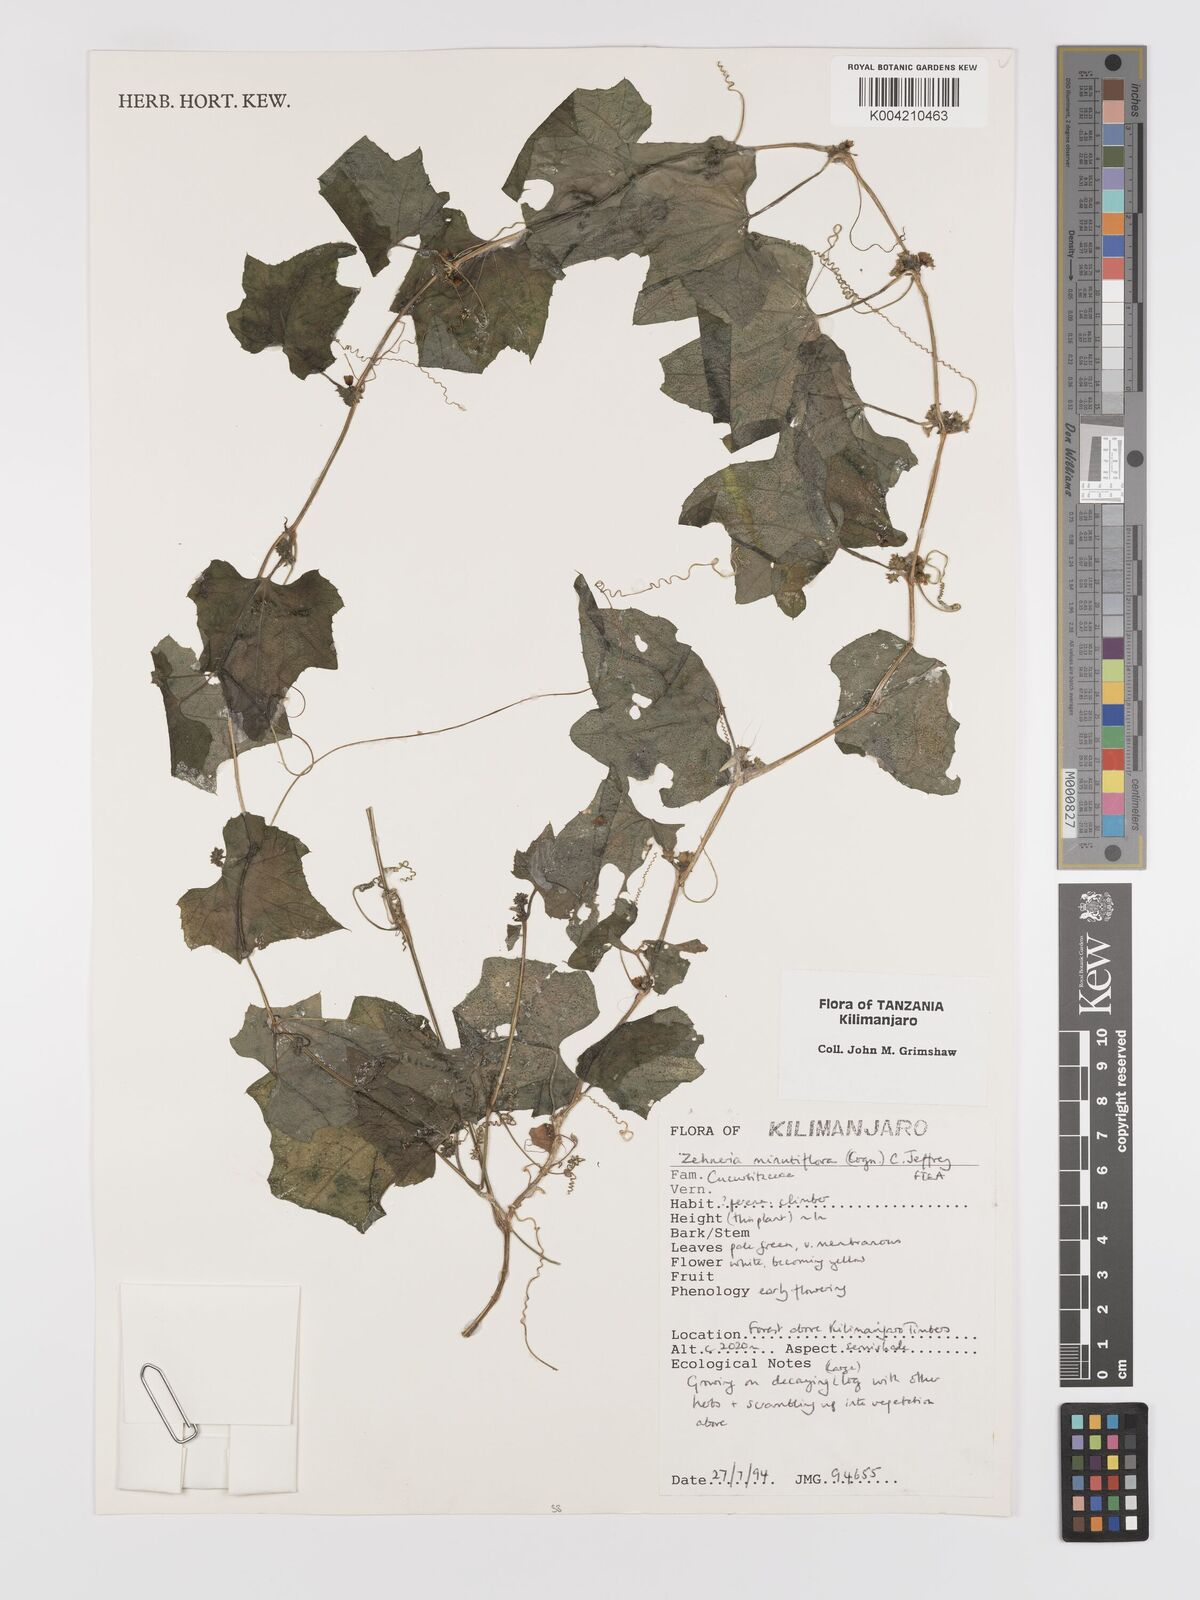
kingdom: Plantae
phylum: Tracheophyta
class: Magnoliopsida
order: Cucurbitales
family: Cucurbitaceae
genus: Zehneria
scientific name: Zehneria minutiflora
